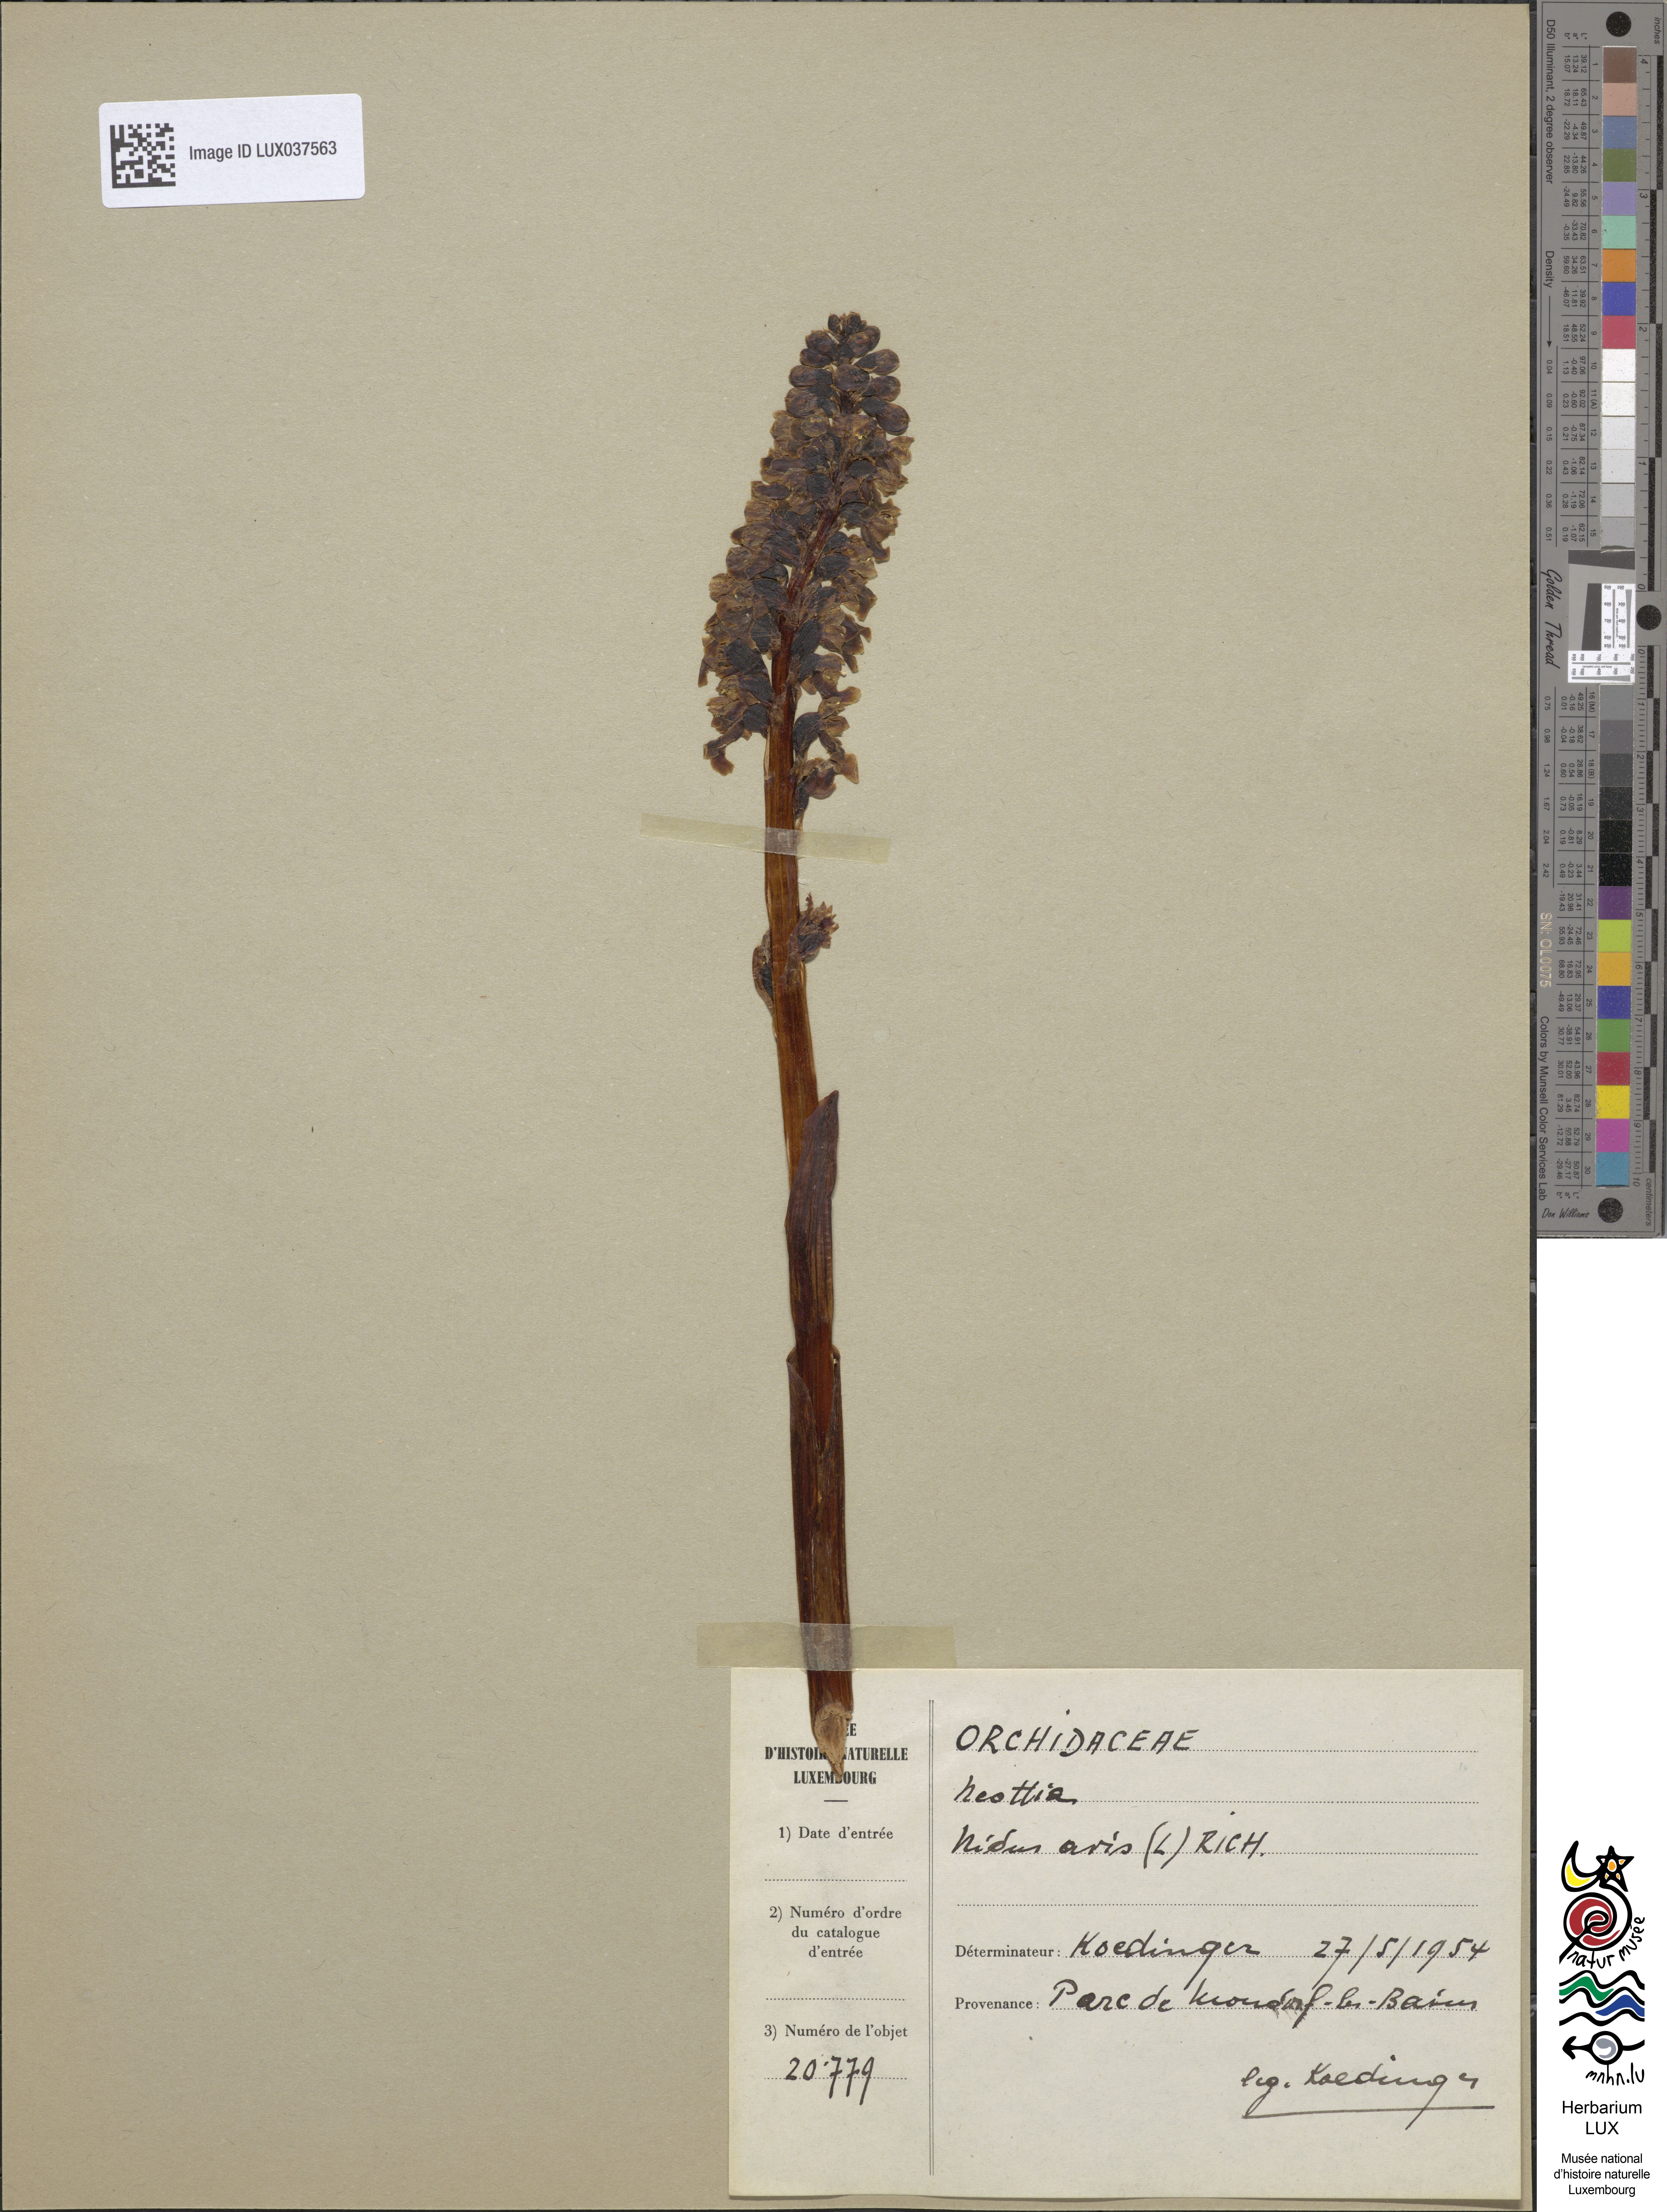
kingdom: Plantae
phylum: Tracheophyta
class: Liliopsida
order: Asparagales
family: Orchidaceae
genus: Neottia
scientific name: Neottia nidus-avis
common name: Bird's-nest orchid
